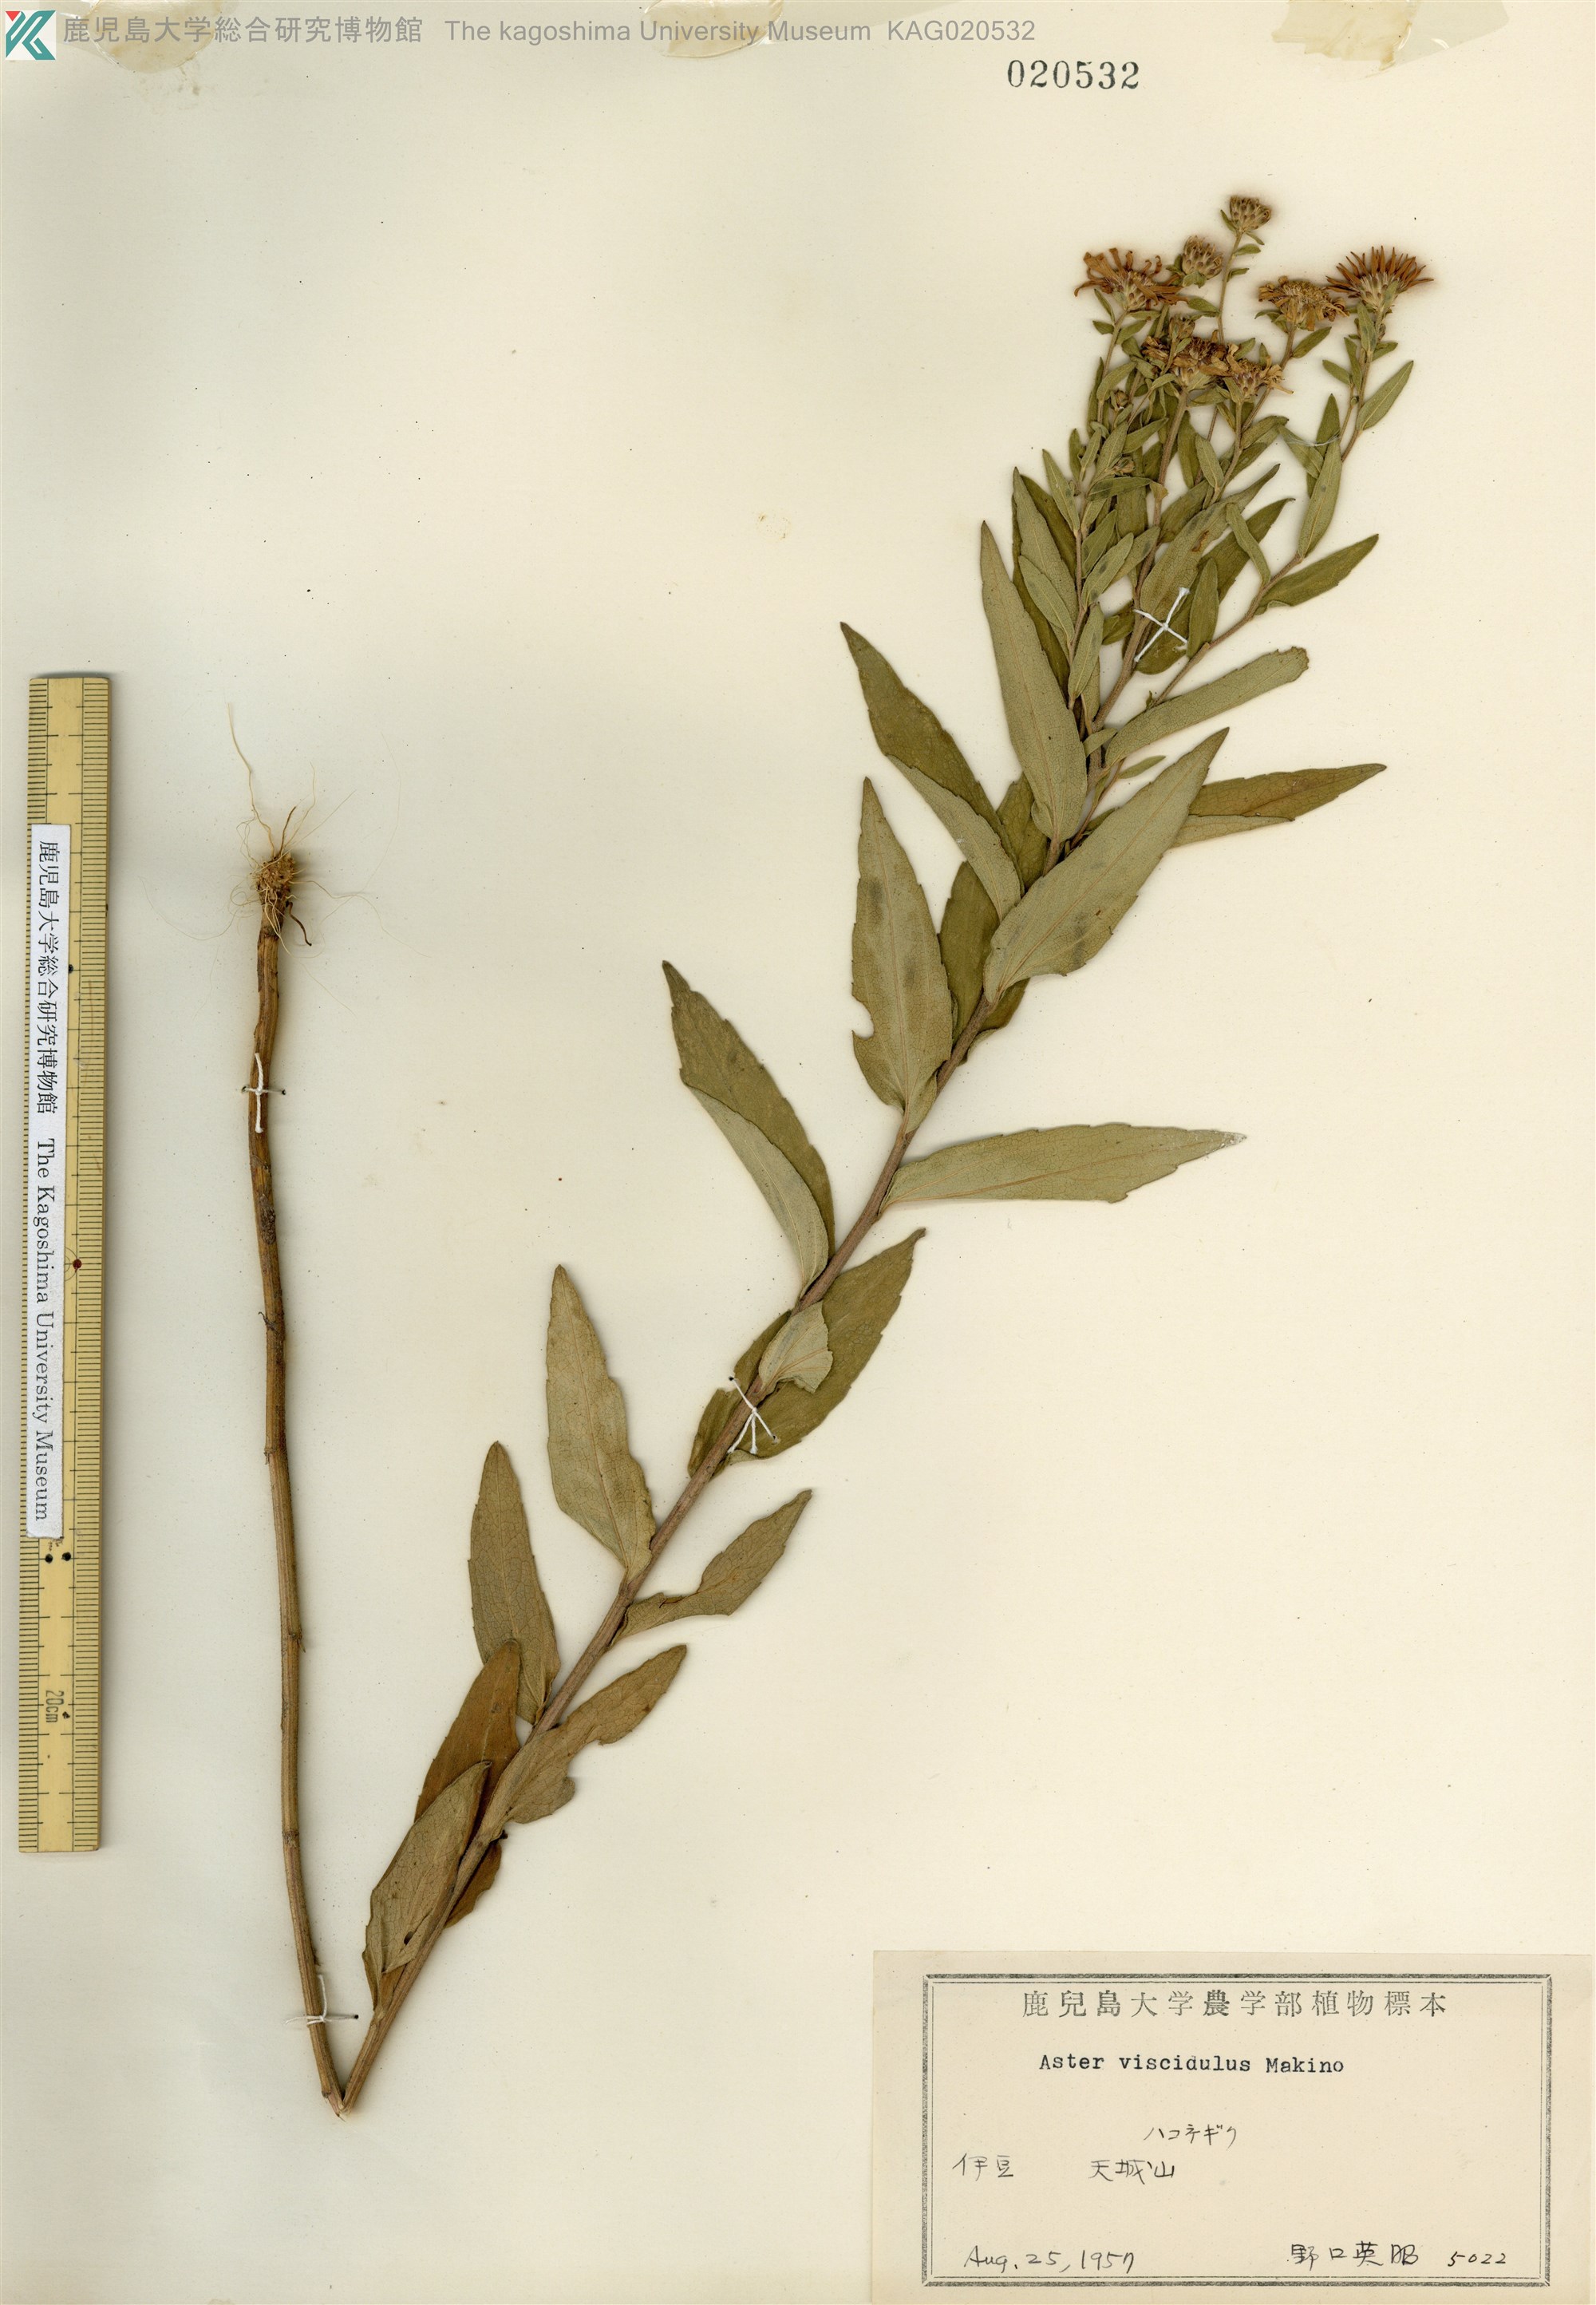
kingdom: Plantae
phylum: Tracheophyta
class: Magnoliopsida
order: Asterales
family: Asteraceae
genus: Aster
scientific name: Aster viscidulus
